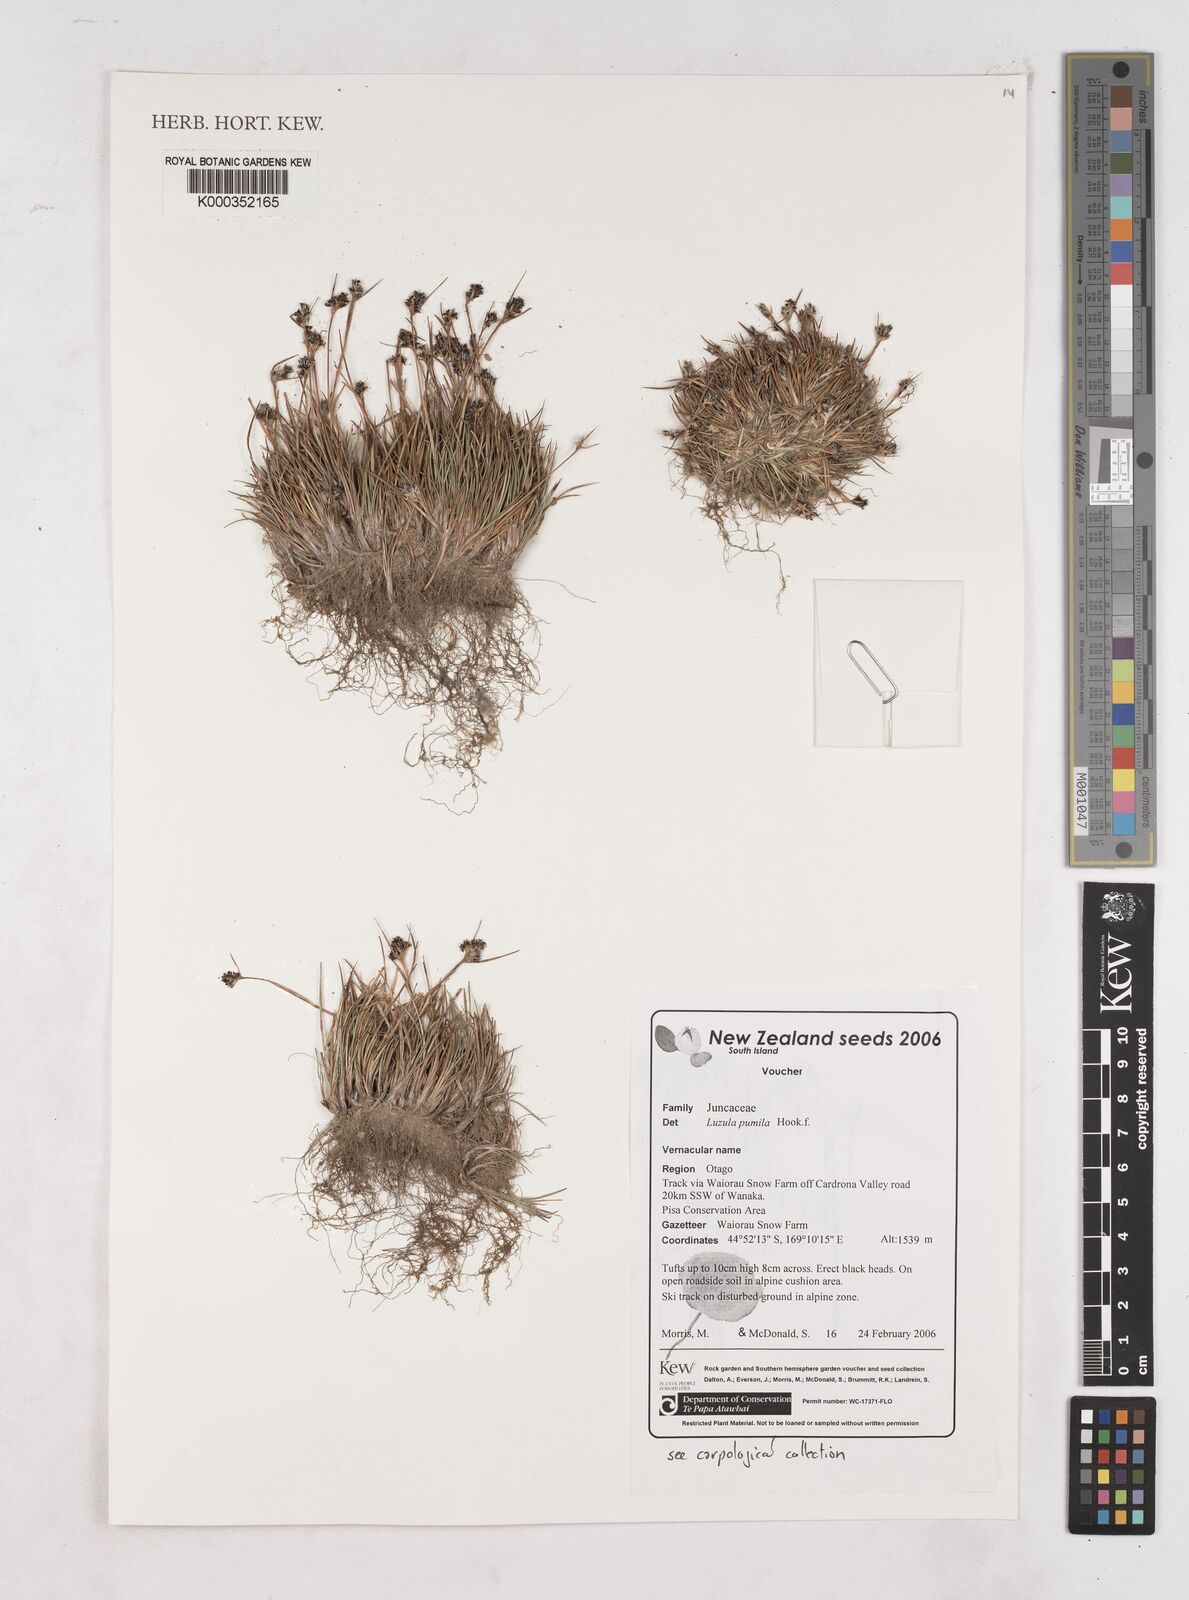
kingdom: Plantae
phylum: Tracheophyta
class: Liliopsida
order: Poales
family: Juncaceae
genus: Luzula
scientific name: Luzula pumila
